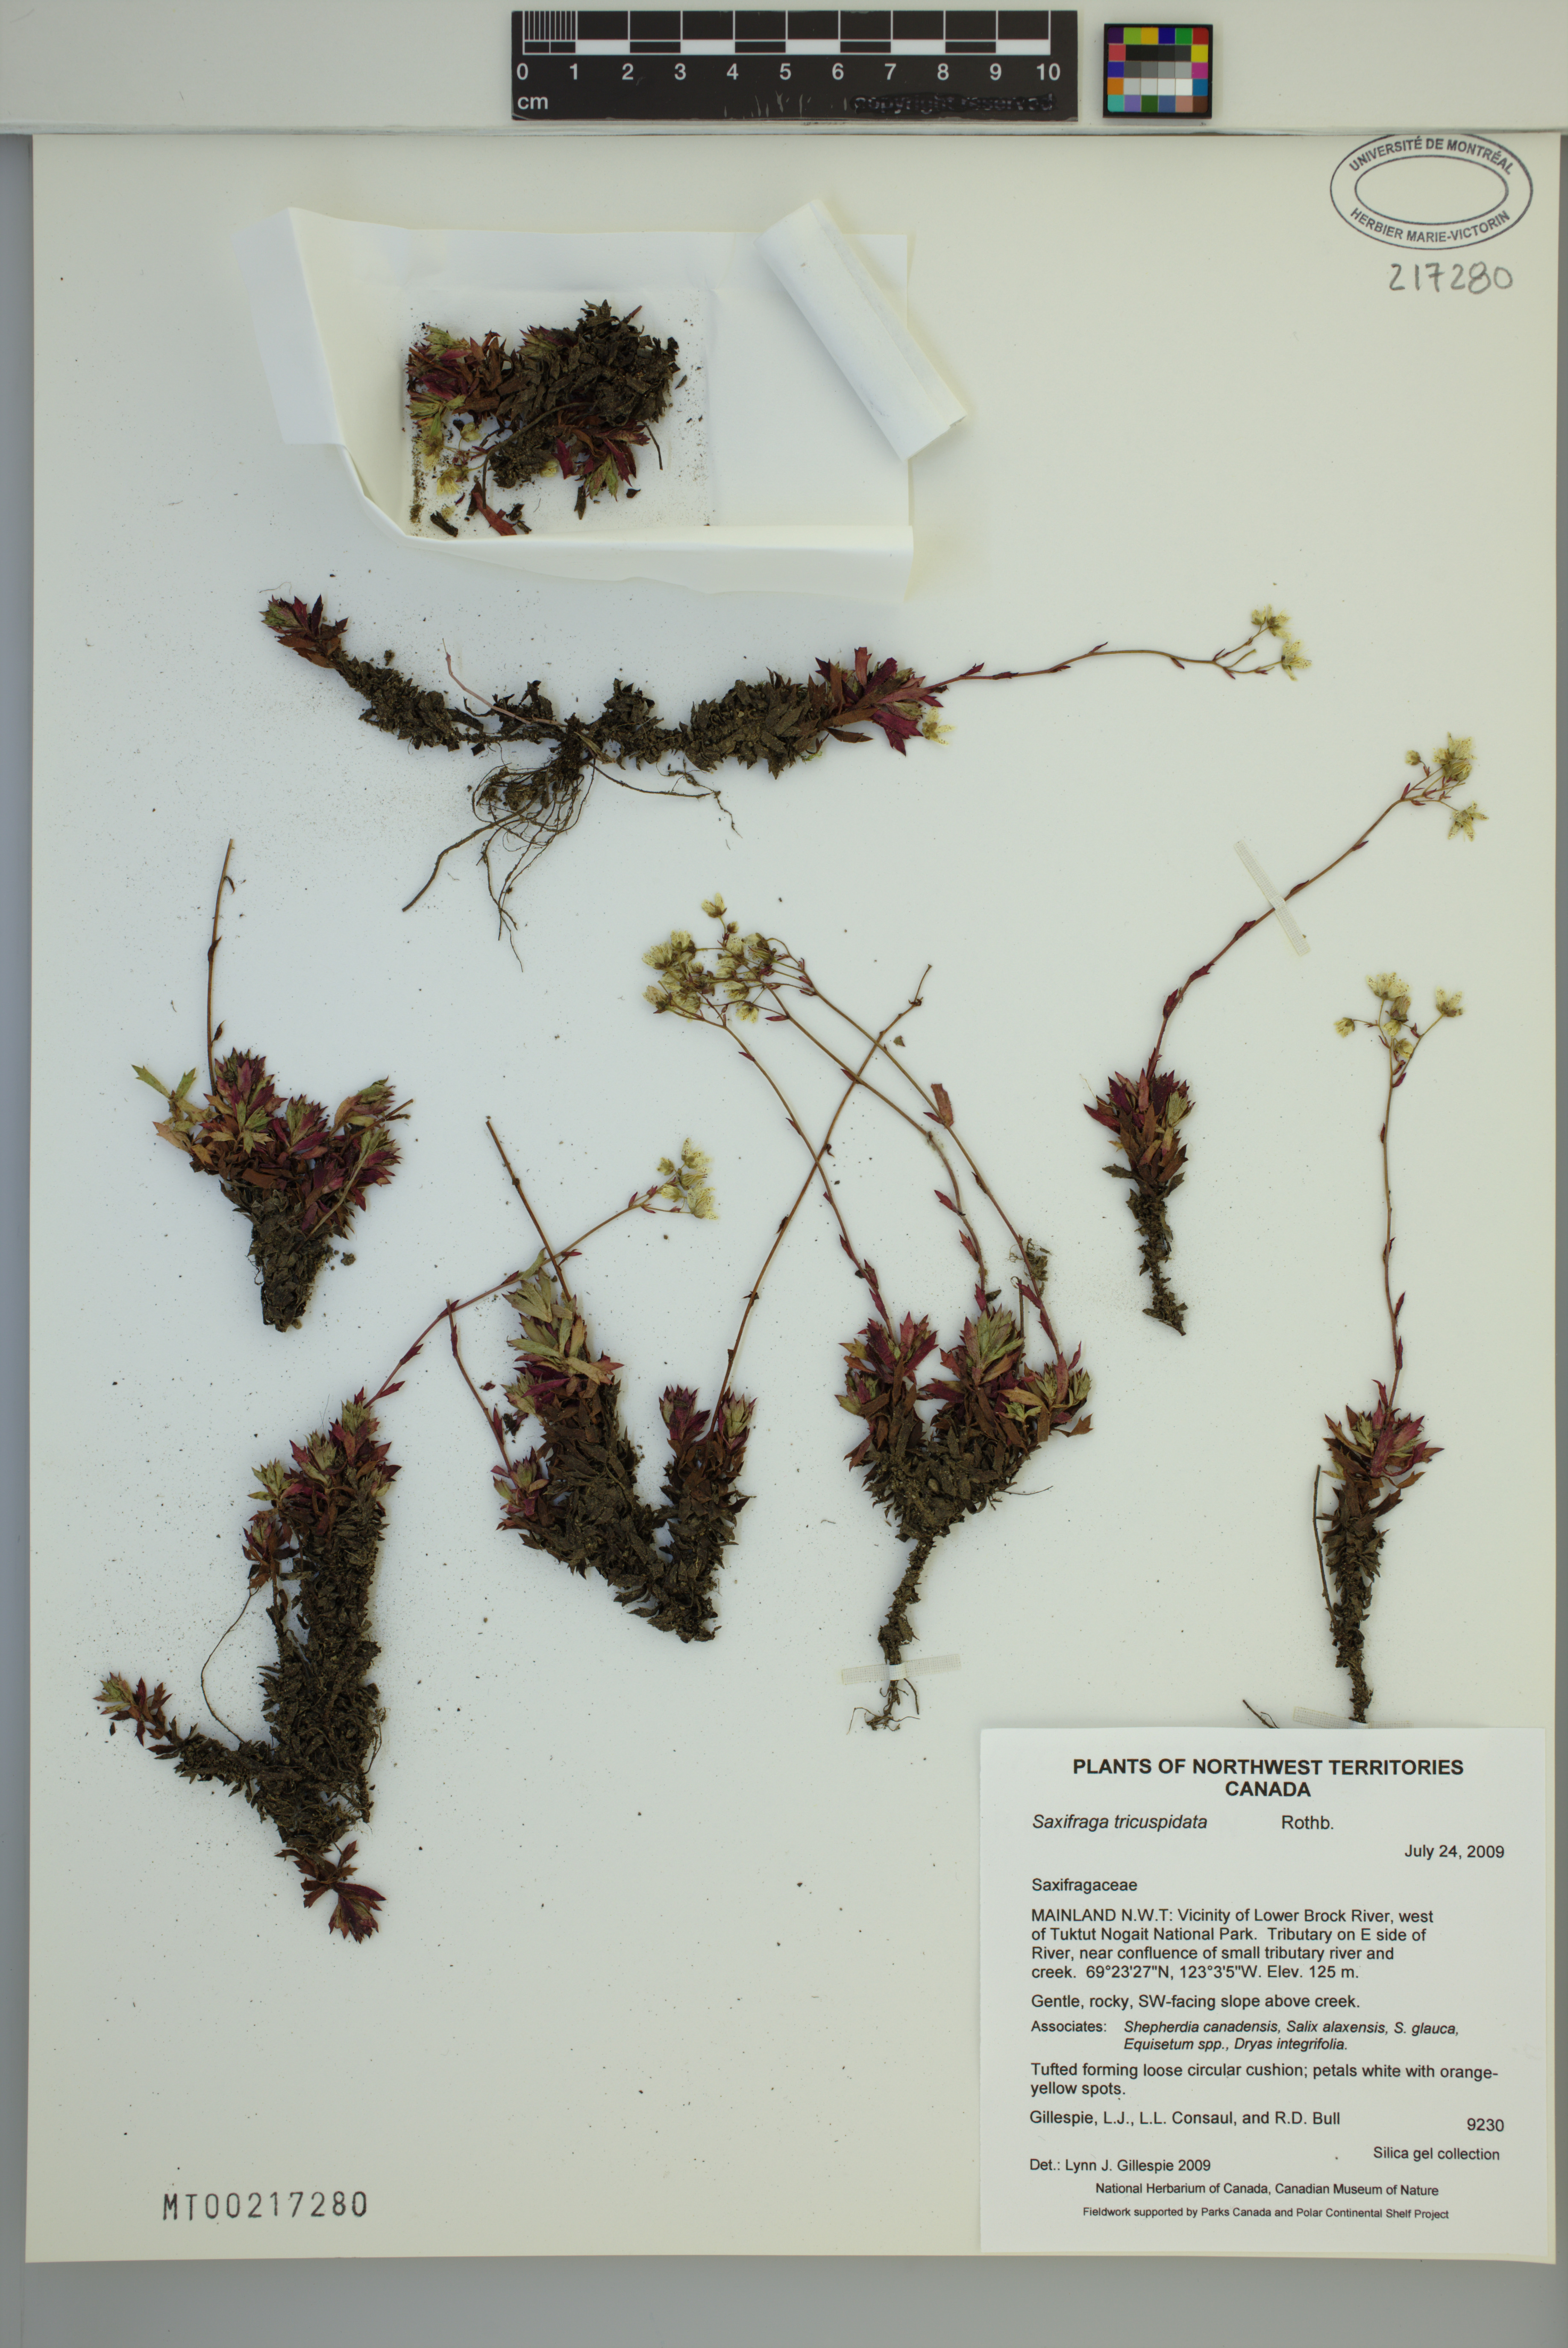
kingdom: Plantae
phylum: Tracheophyta
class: Magnoliopsida
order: Saxifragales
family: Saxifragaceae
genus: Saxifraga
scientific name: Saxifraga tricuspidata
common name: Prickly saxifrage
